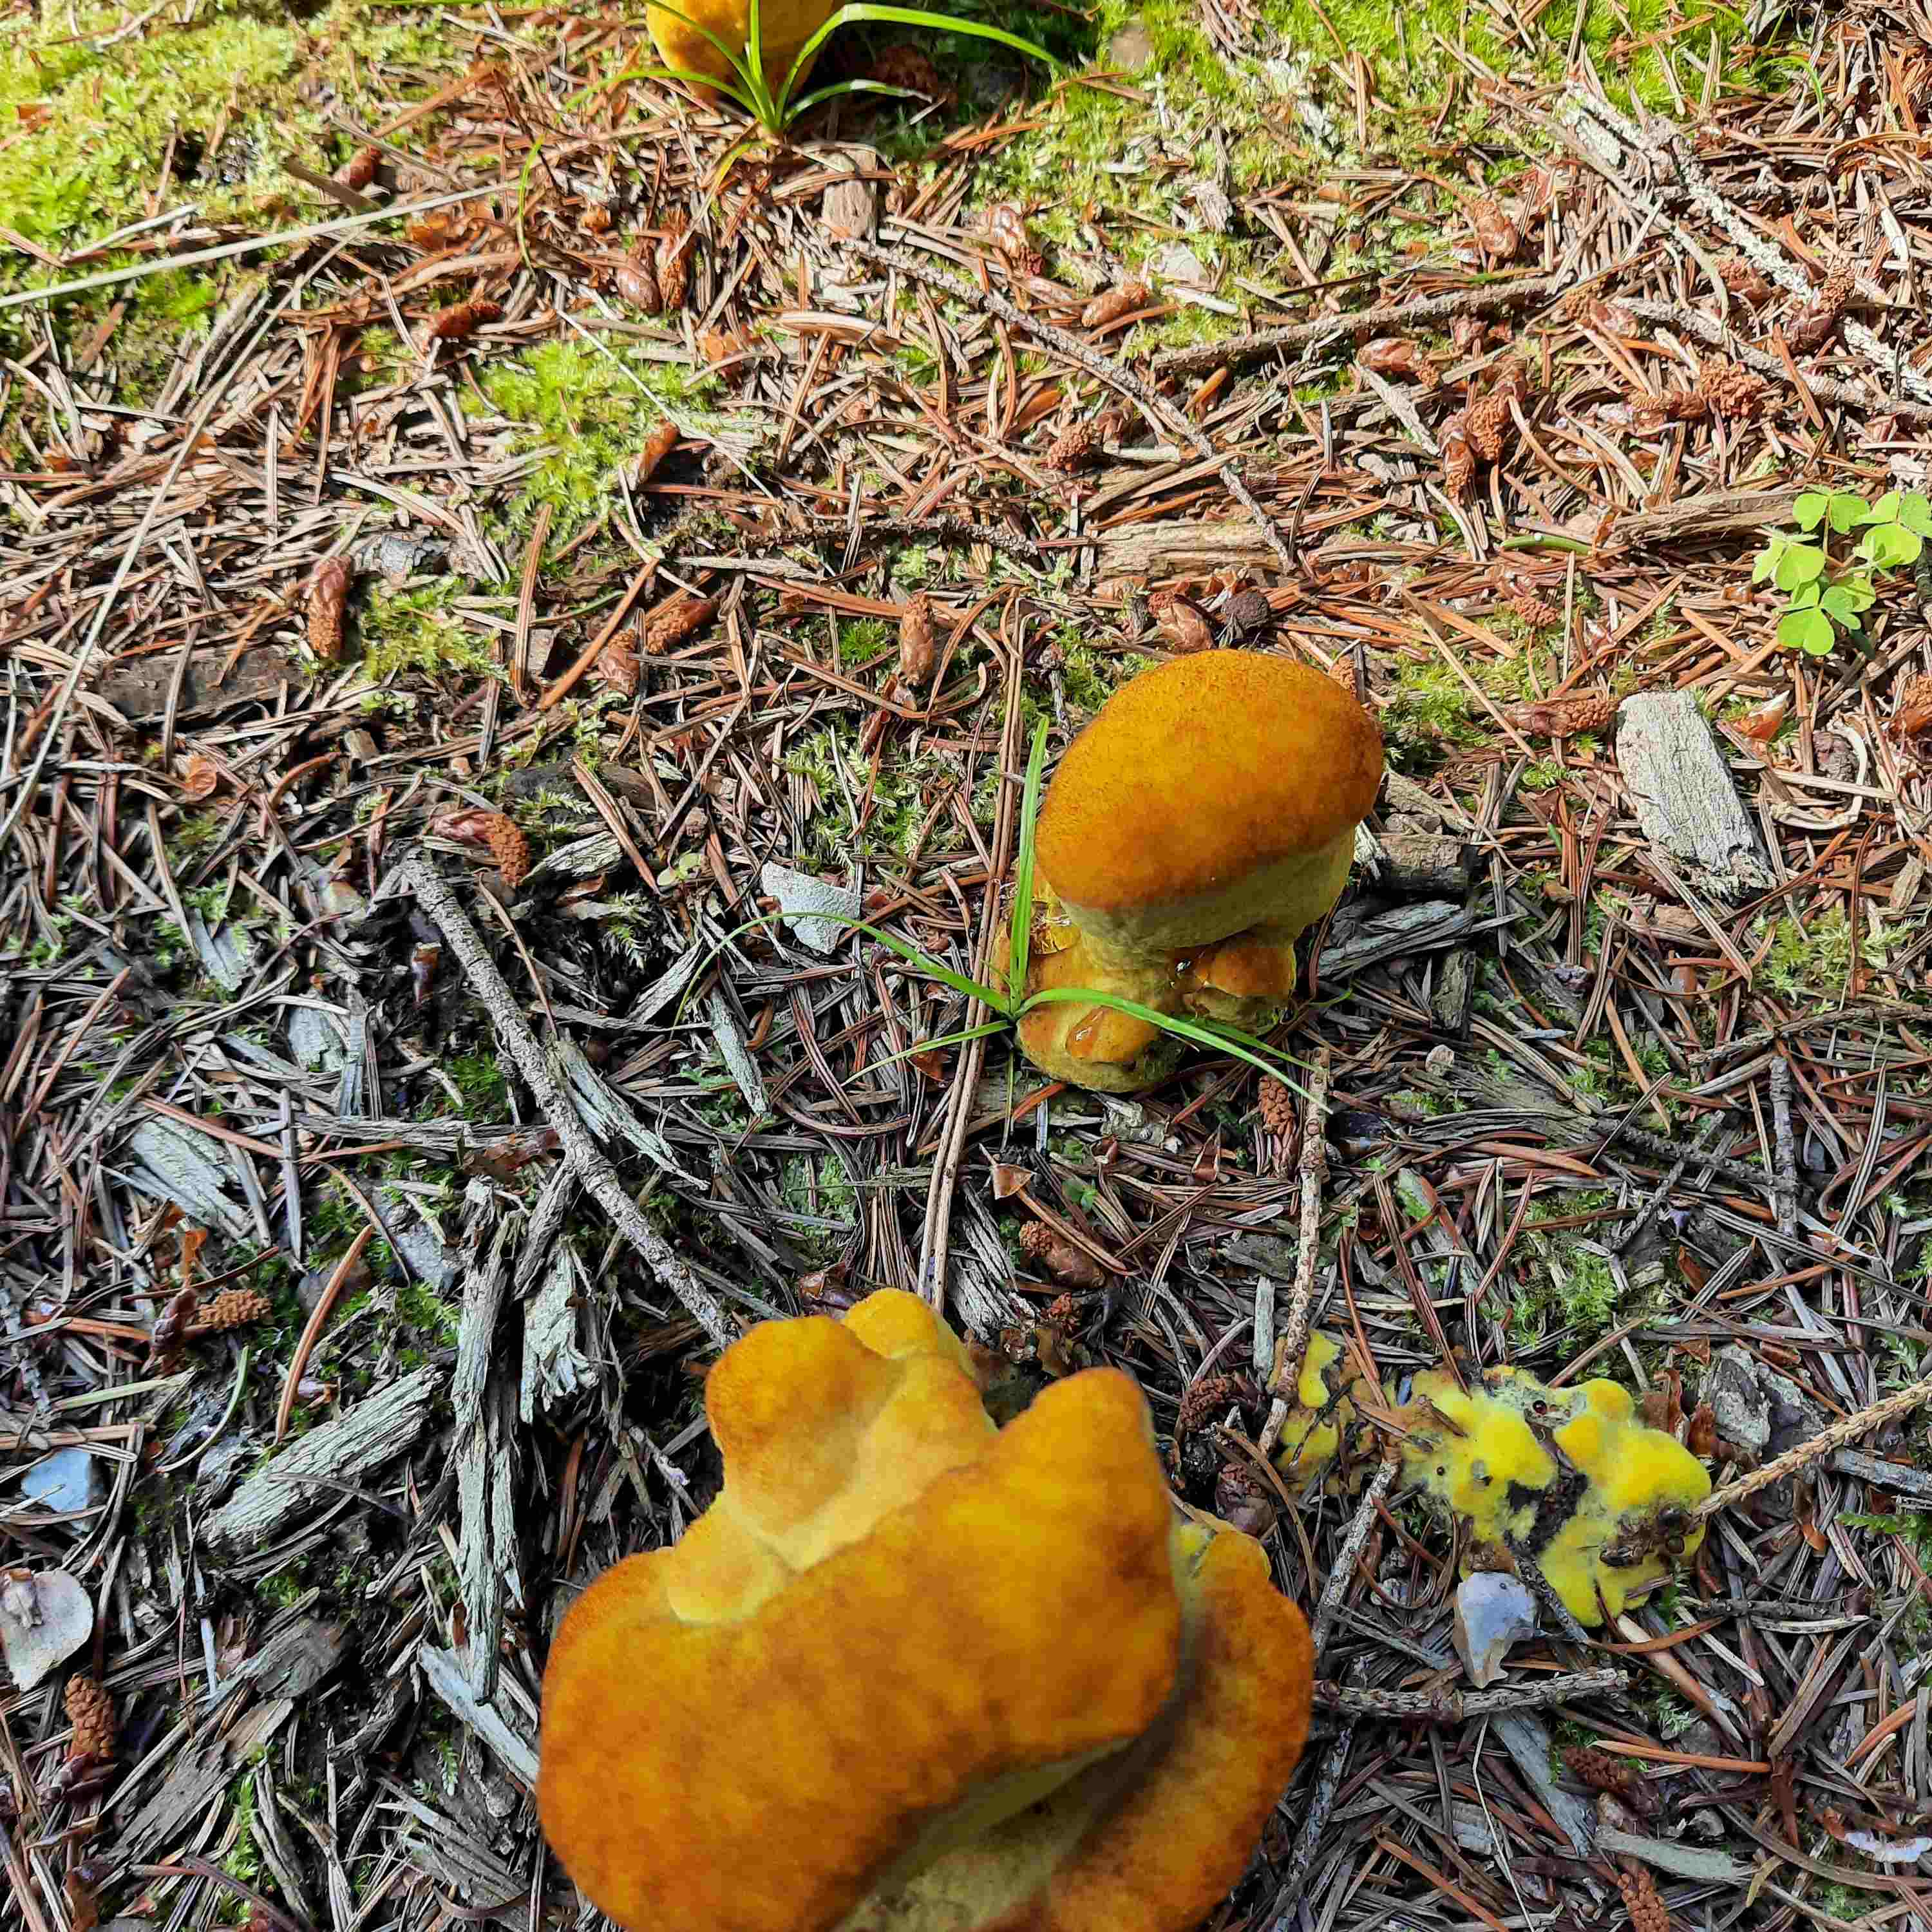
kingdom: Fungi
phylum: Basidiomycota
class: Agaricomycetes
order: Polyporales
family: Laetiporaceae
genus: Phaeolus
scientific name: Phaeolus schweinitzii
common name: brunporesvamp
